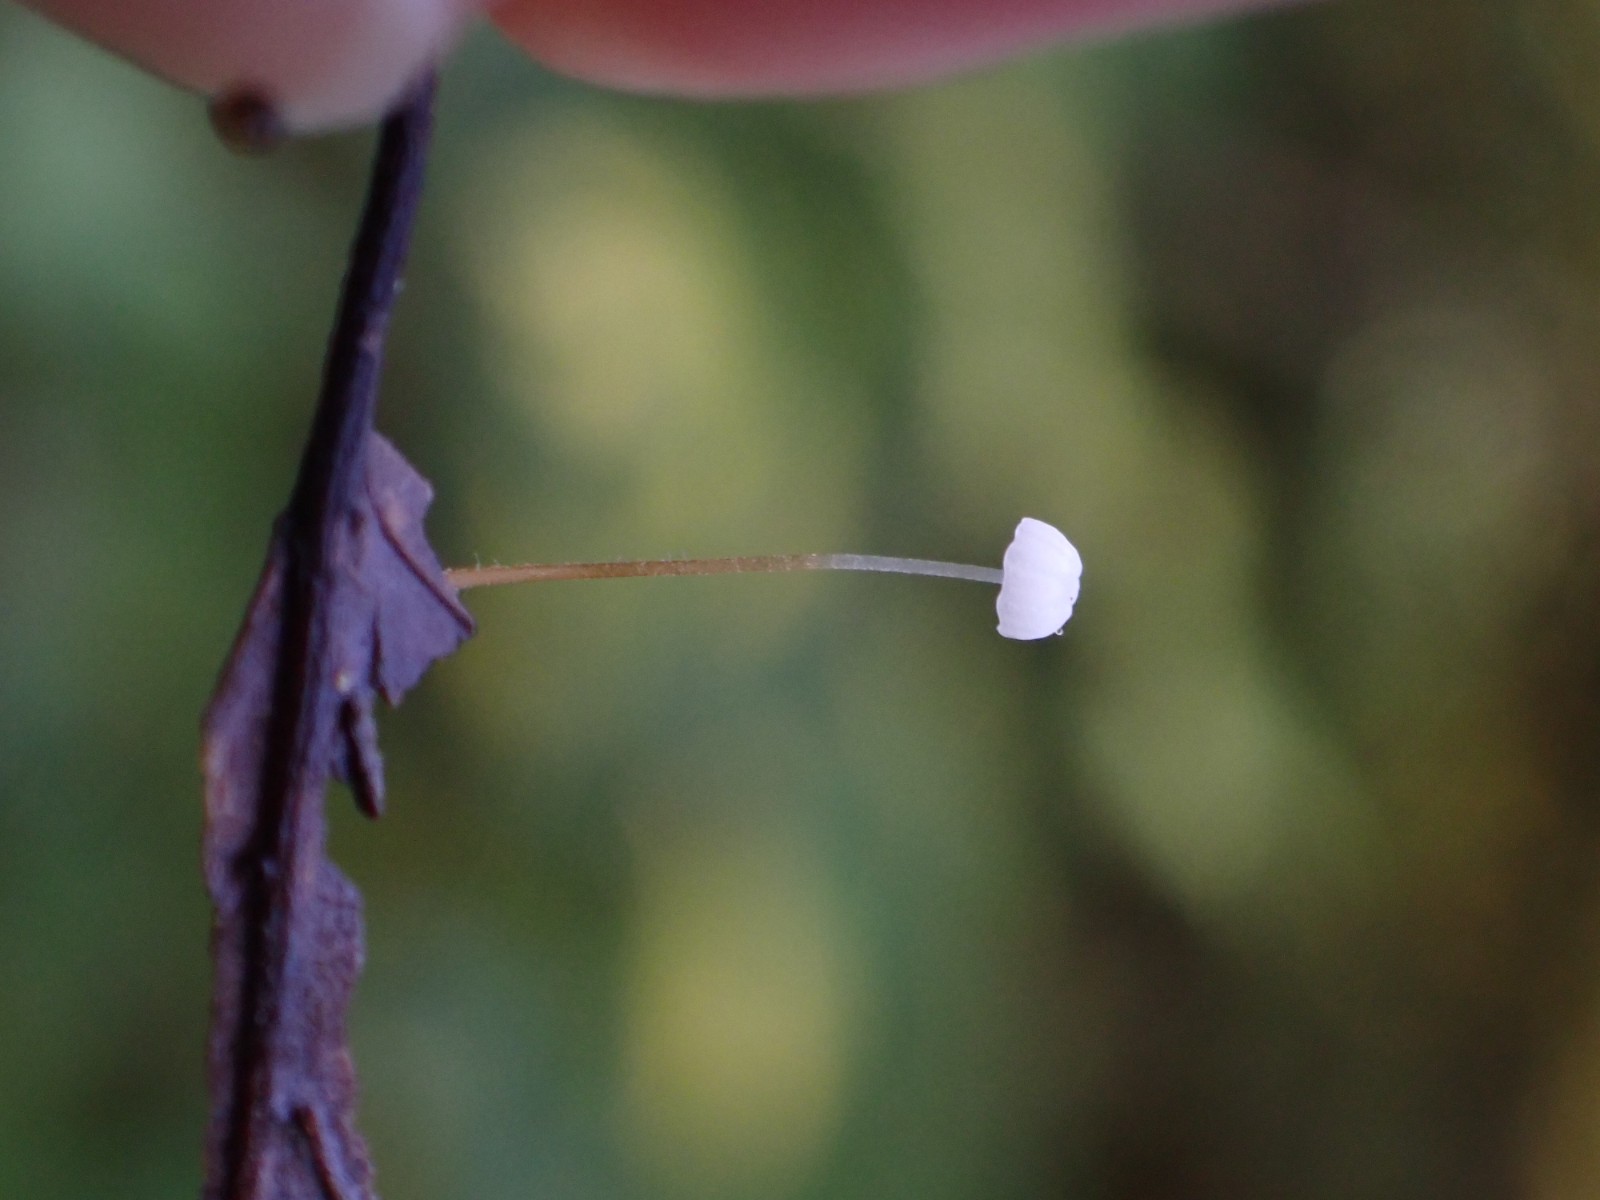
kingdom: Fungi
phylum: Basidiomycota
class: Agaricomycetes
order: Agaricales
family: Physalacriaceae
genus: Rhizomarasmius
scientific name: Rhizomarasmius setosus
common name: bøgeblads-bruskhat
